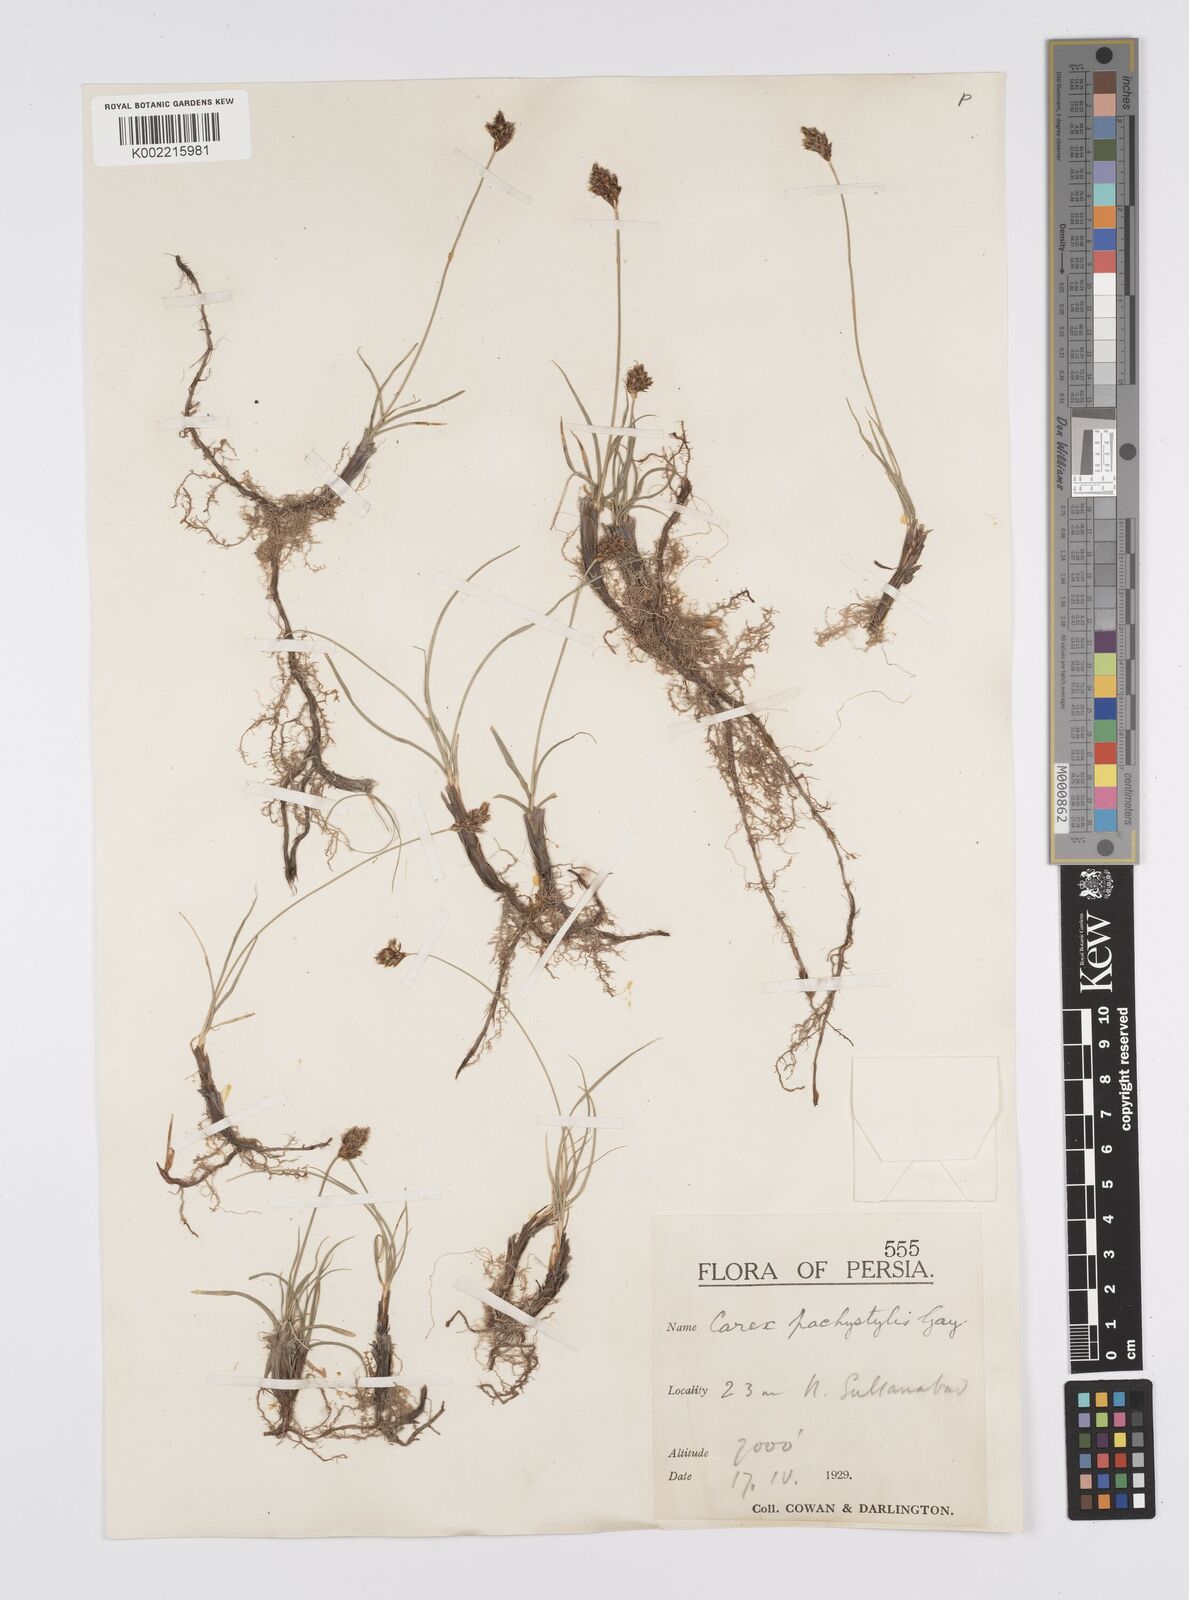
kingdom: Plantae
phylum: Tracheophyta
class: Liliopsida
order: Poales
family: Cyperaceae
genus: Carex
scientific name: Carex pachystylis
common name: Thick-stem sedge
